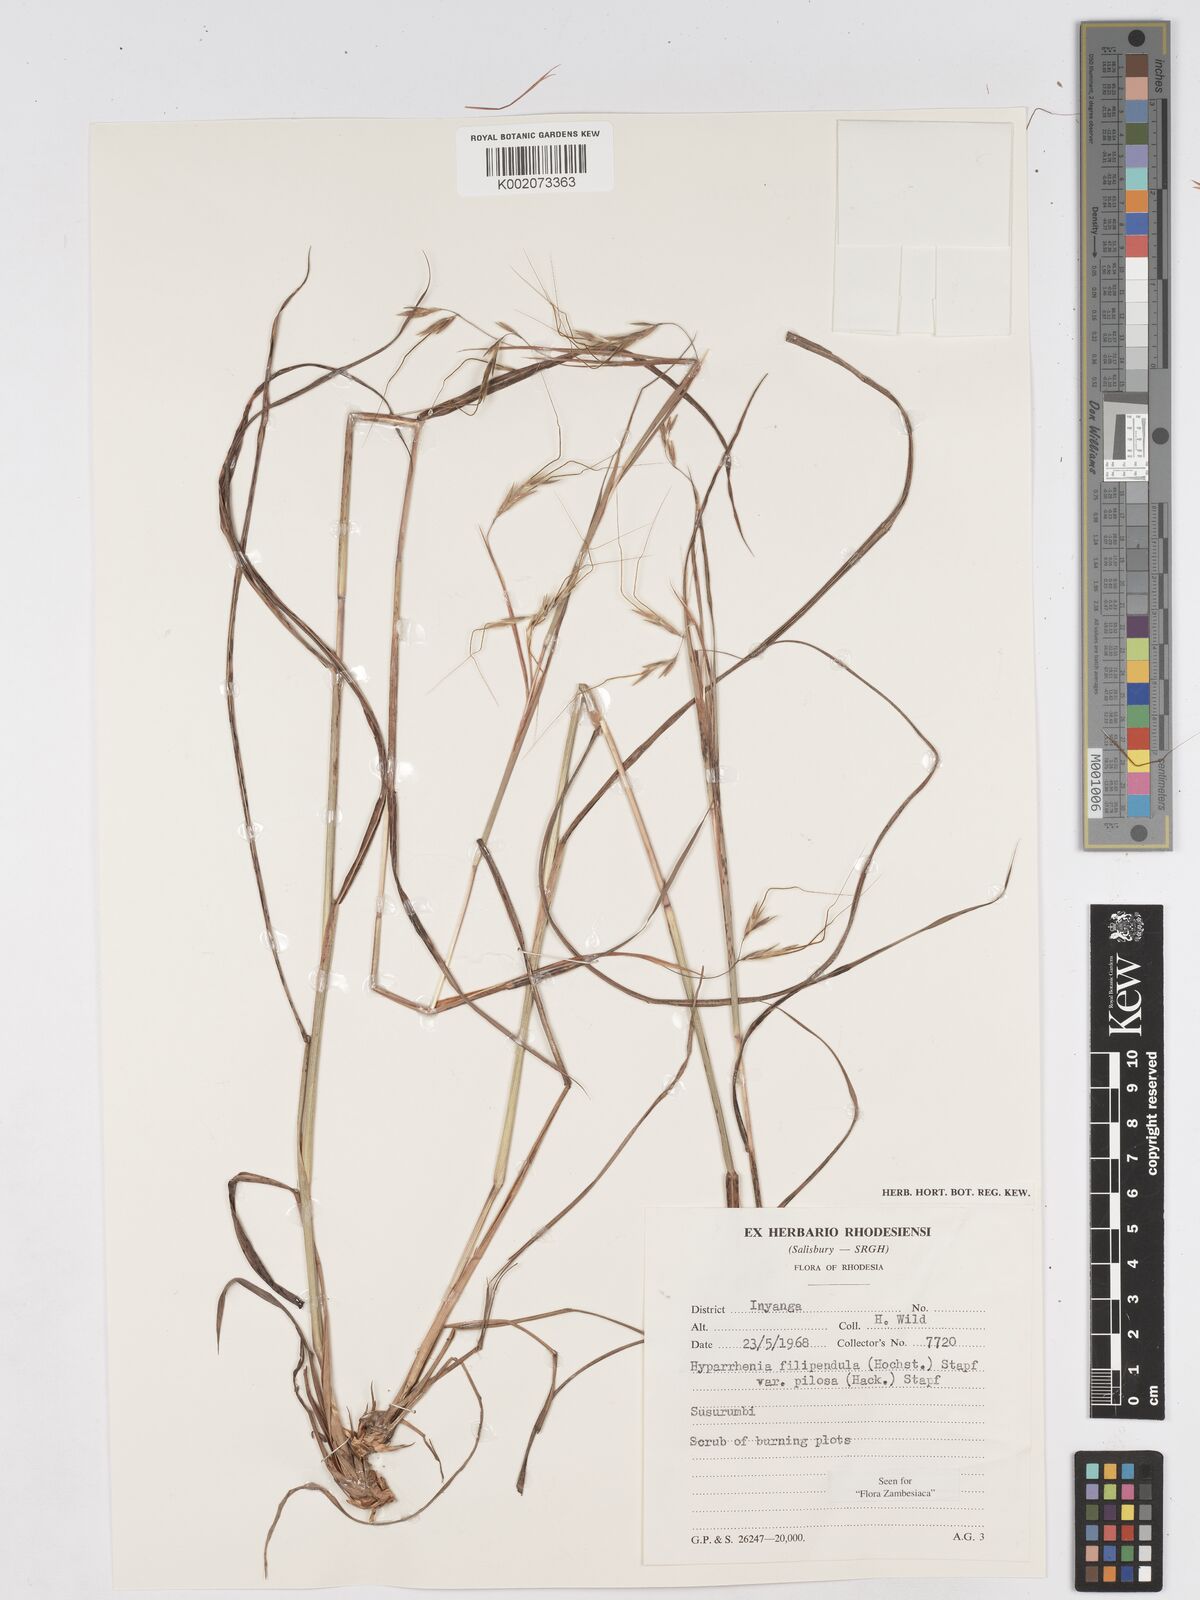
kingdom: Plantae
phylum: Tracheophyta
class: Liliopsida
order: Poales
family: Poaceae
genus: Hyparrhenia
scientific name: Hyparrhenia filipendula
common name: Tambookie grass
